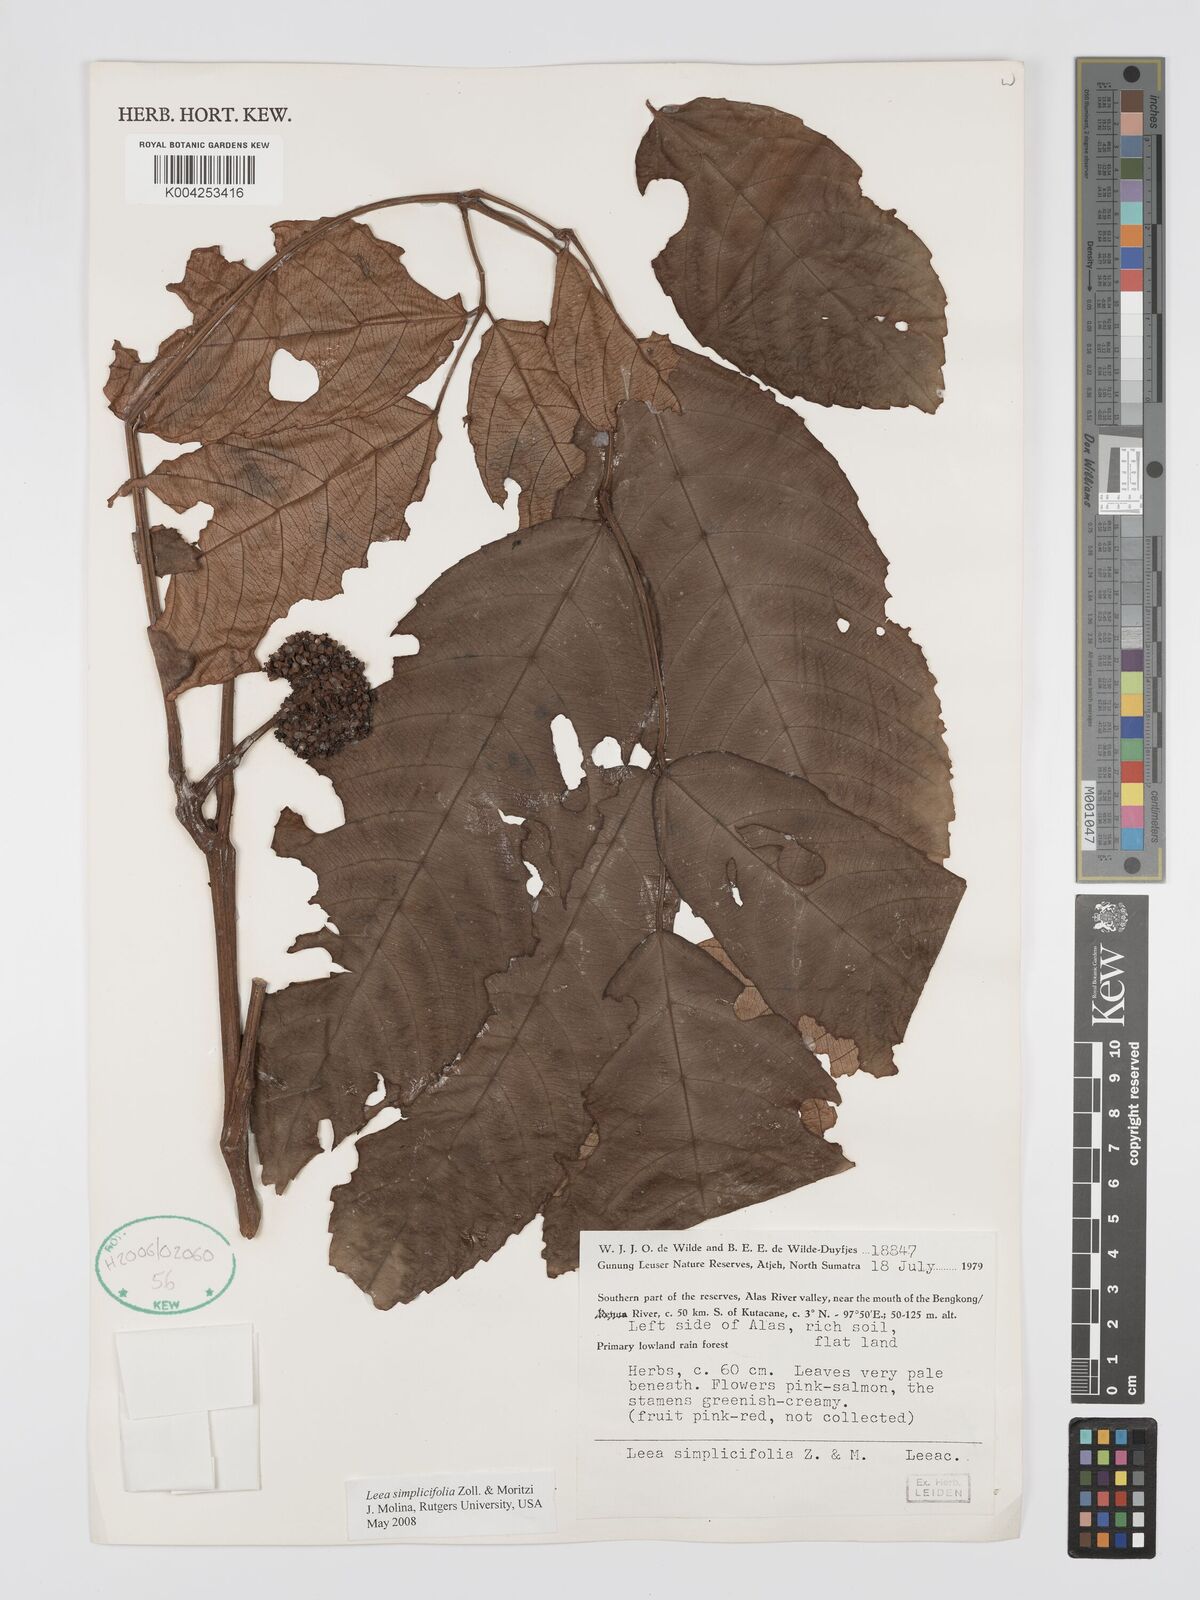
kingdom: Plantae
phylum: Tracheophyta
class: Magnoliopsida
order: Vitales
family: Vitaceae
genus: Leea
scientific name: Leea
